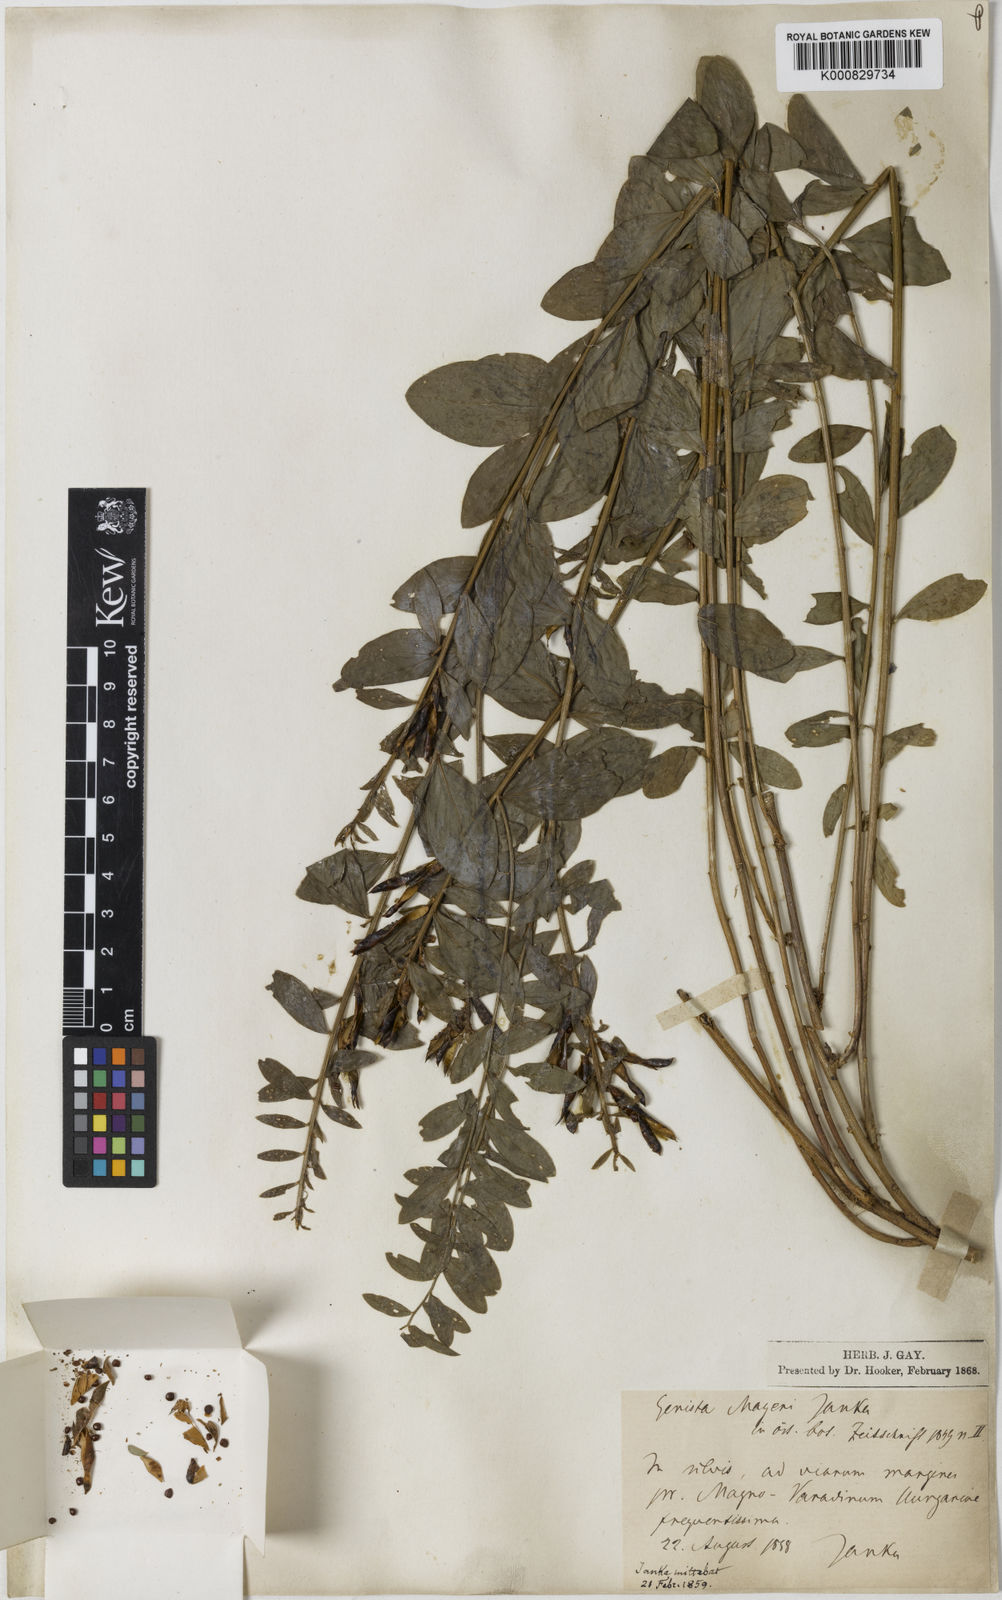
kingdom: Plantae
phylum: Tracheophyta
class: Magnoliopsida
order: Fabales
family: Fabaceae
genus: Genista
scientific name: Genista tinctoria
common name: Dyer's greenweed
